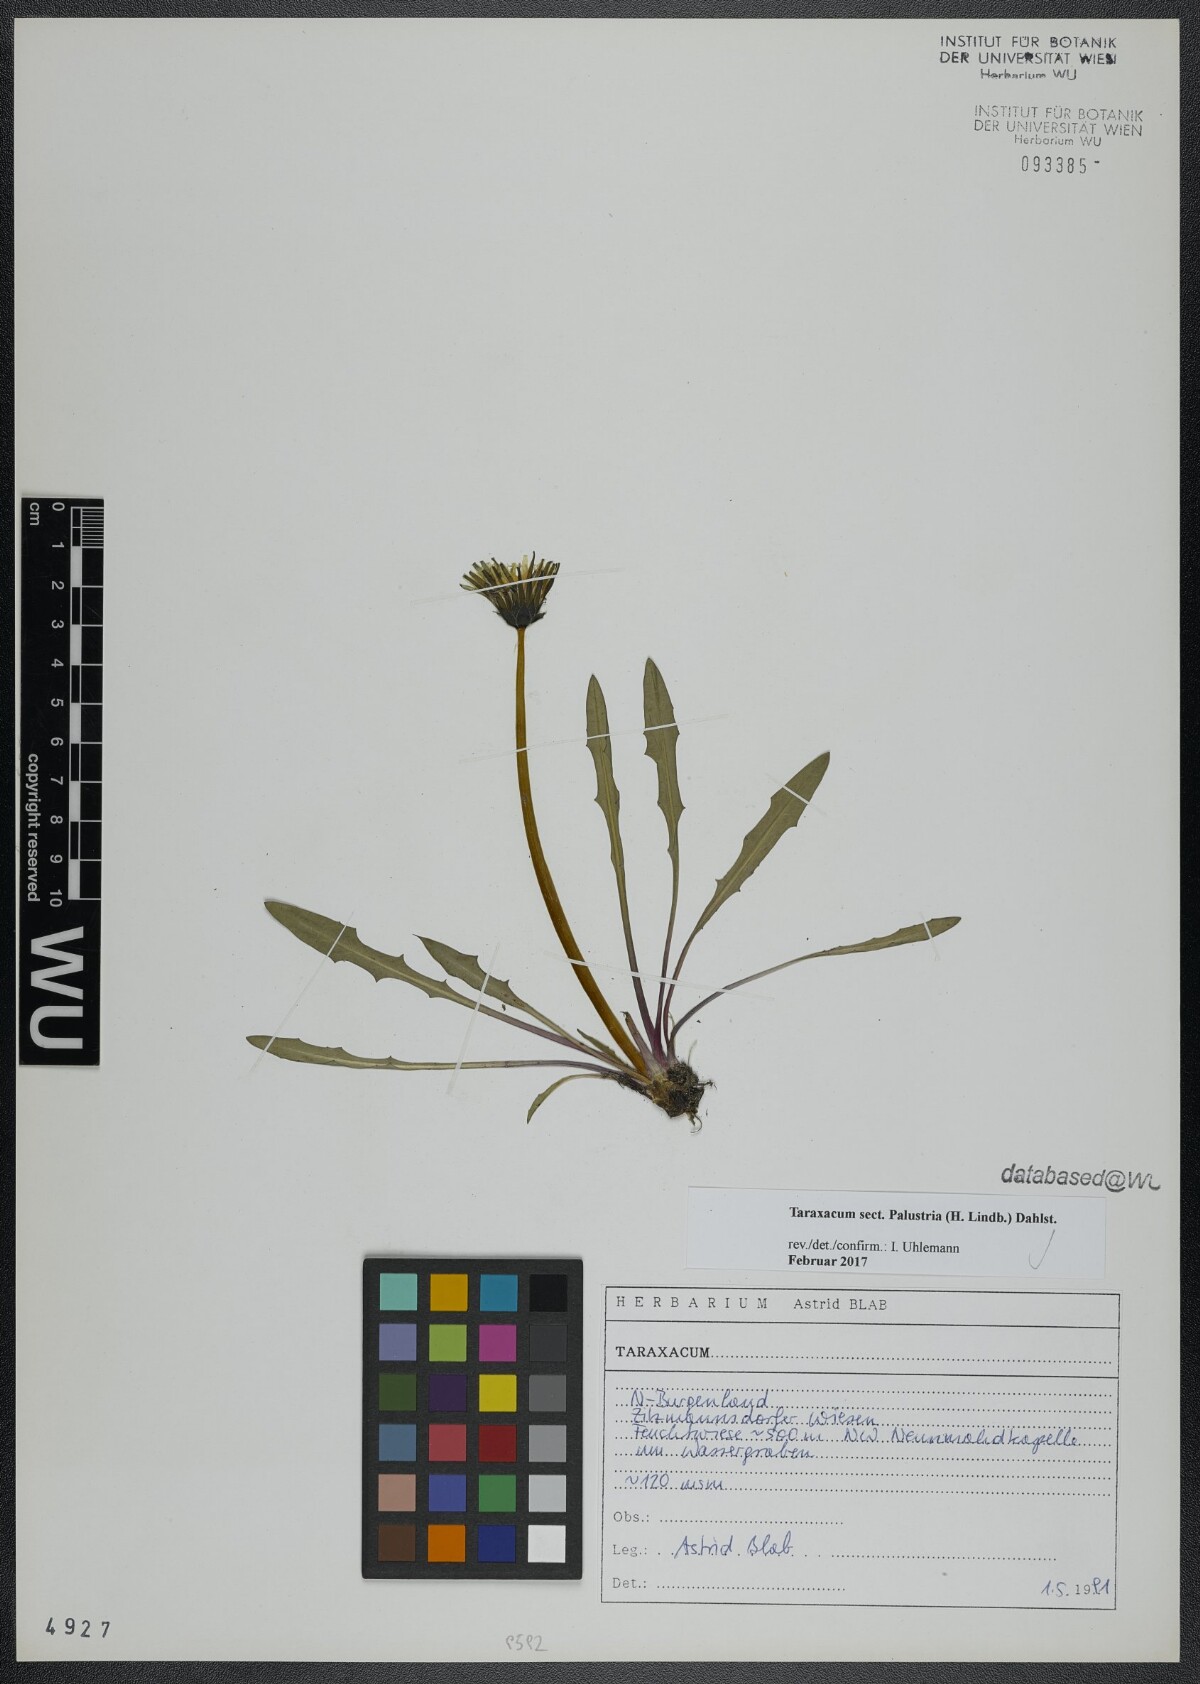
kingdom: Plantae
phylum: Tracheophyta
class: Magnoliopsida
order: Asterales
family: Asteraceae
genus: Taraxacum
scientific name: Taraxacum
